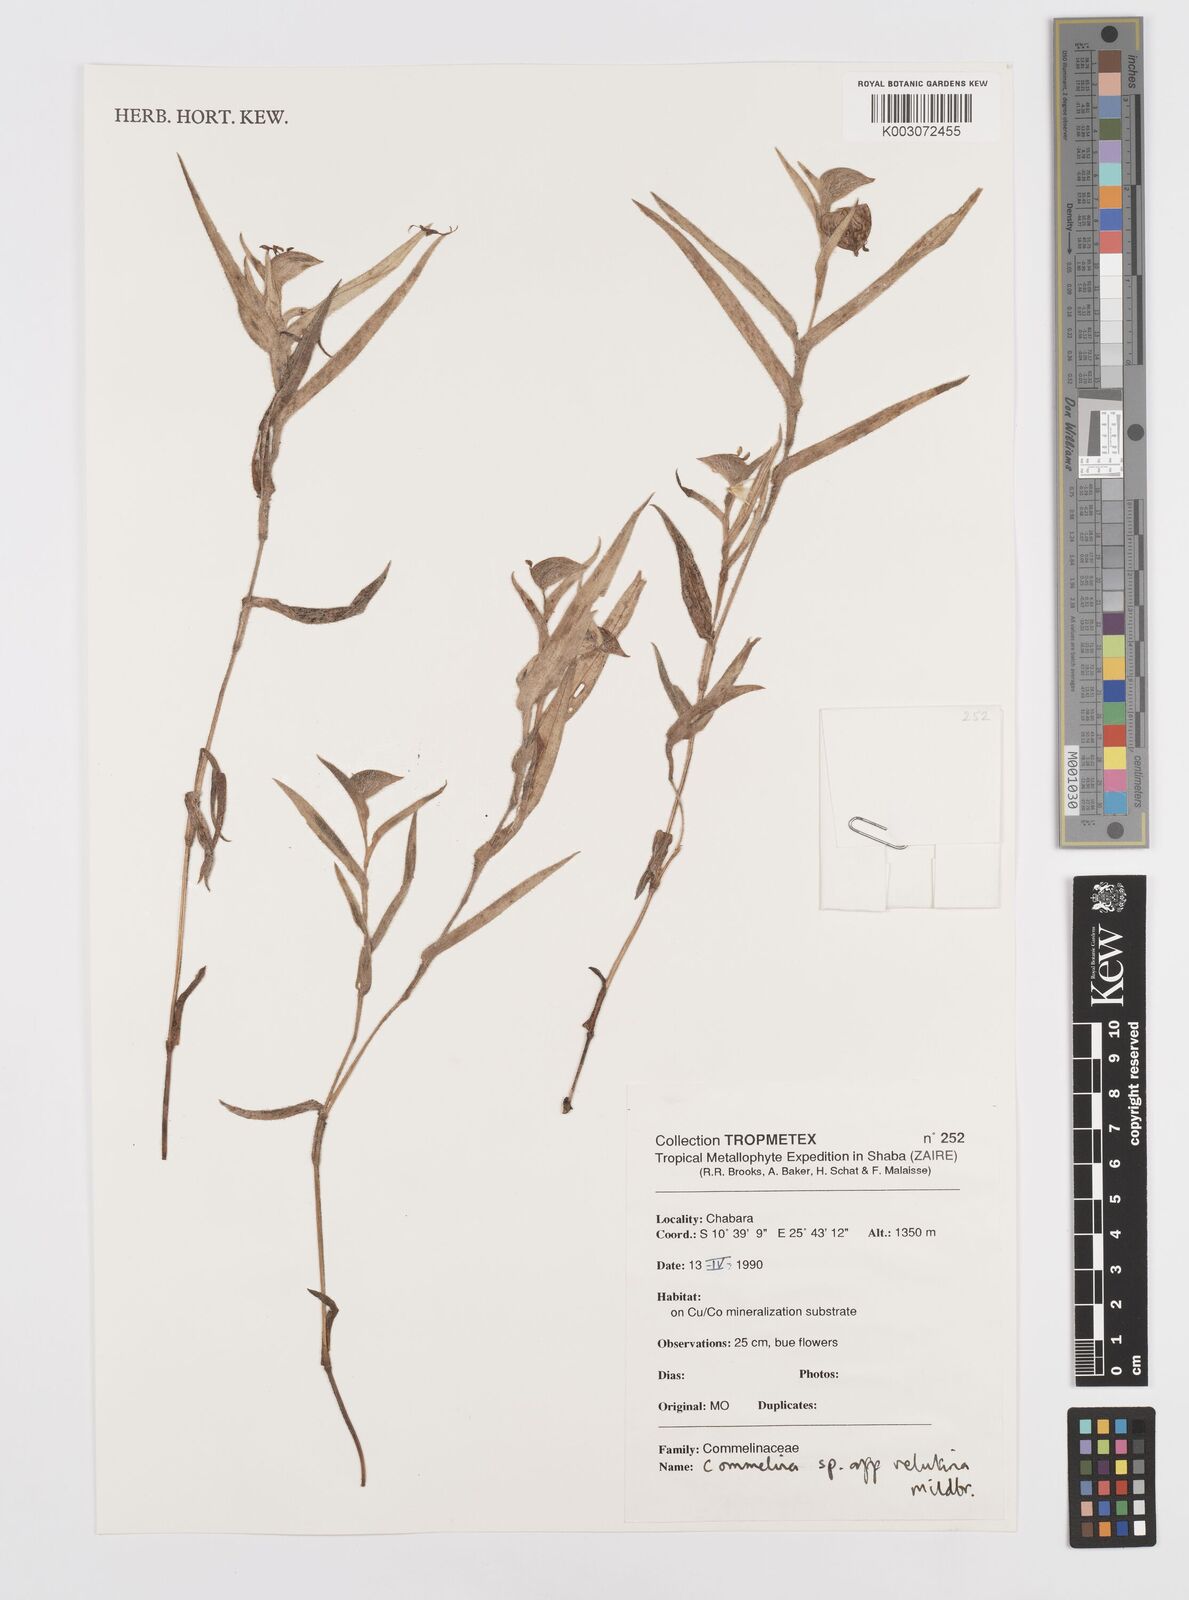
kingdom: Plantae
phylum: Tracheophyta
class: Liliopsida
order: Commelinales
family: Commelinaceae
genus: Commelina
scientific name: Commelina velutina
